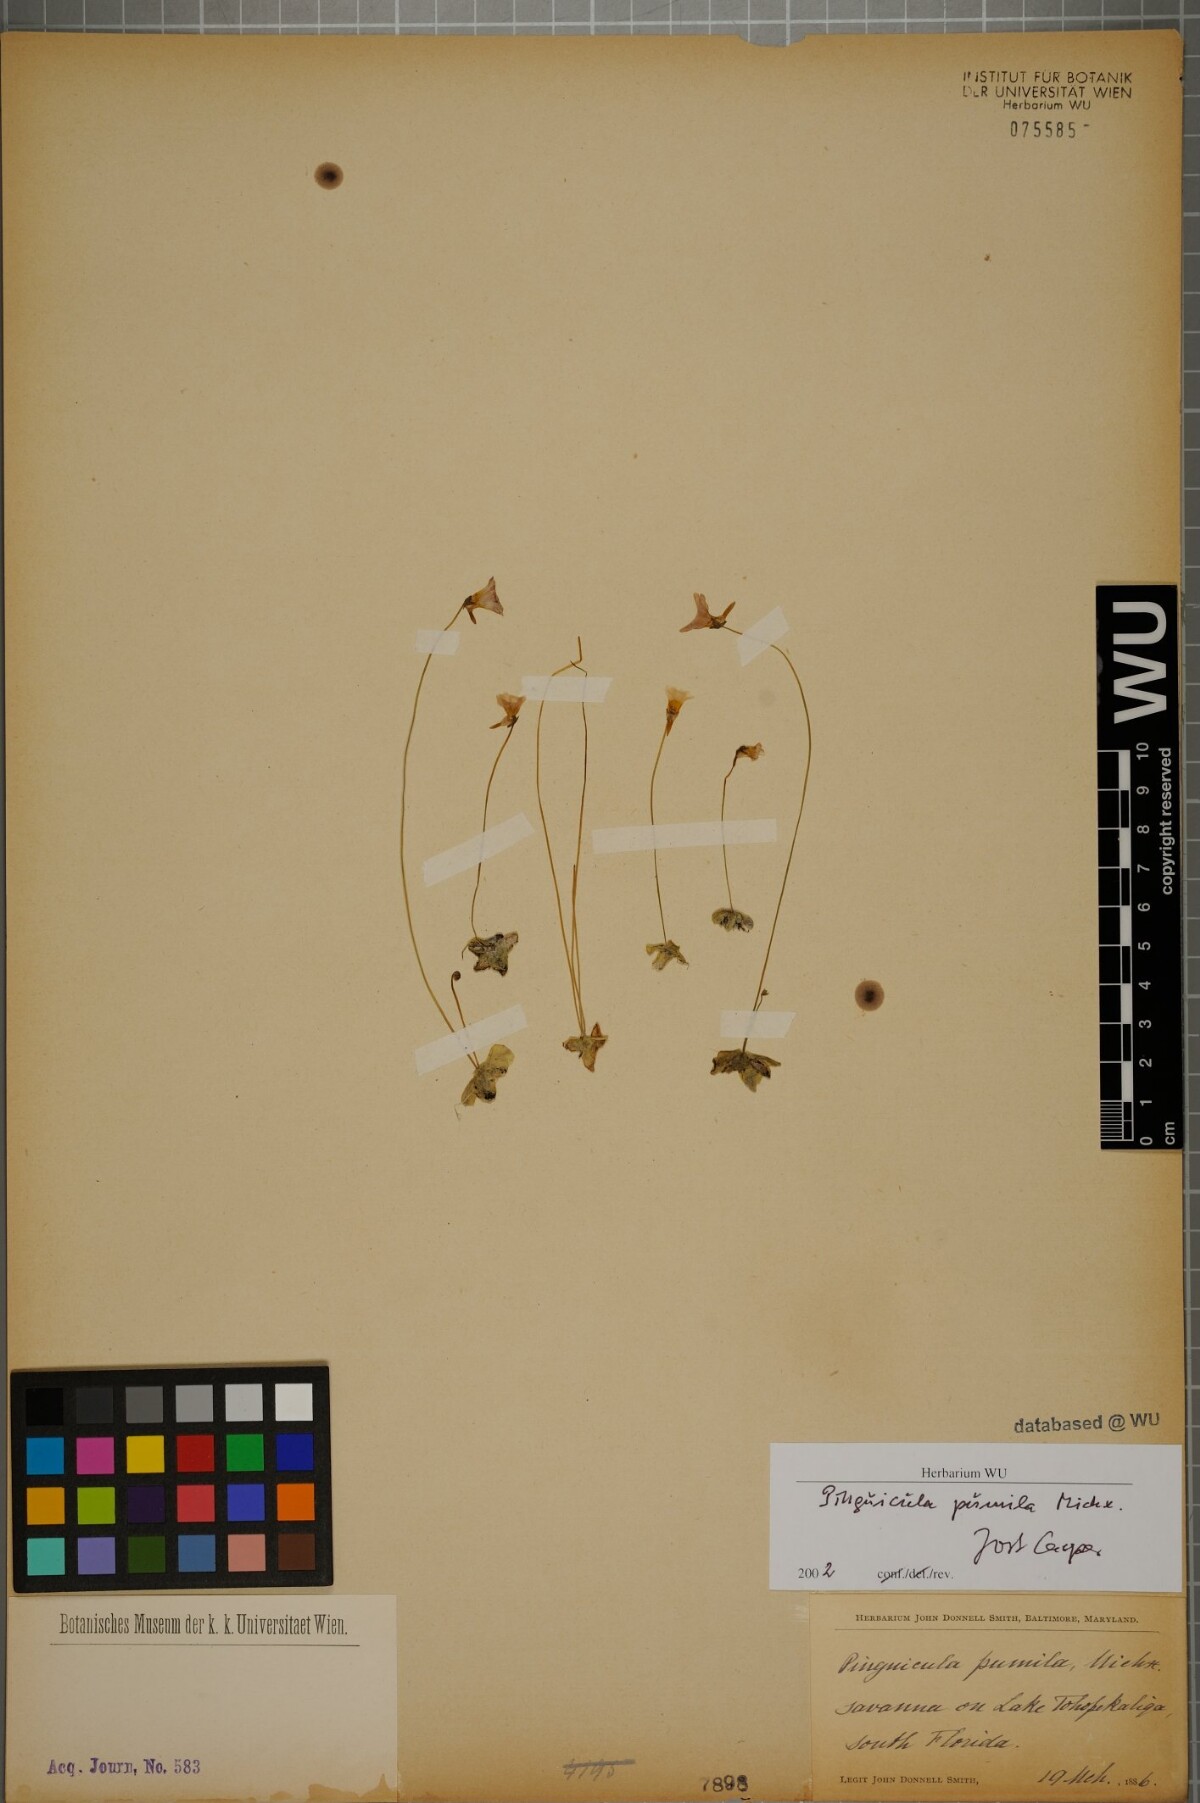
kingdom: Plantae
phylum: Tracheophyta
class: Magnoliopsida
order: Lamiales
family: Lentibulariaceae
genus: Pinguicula
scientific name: Pinguicula pumila
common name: Small butterwort
